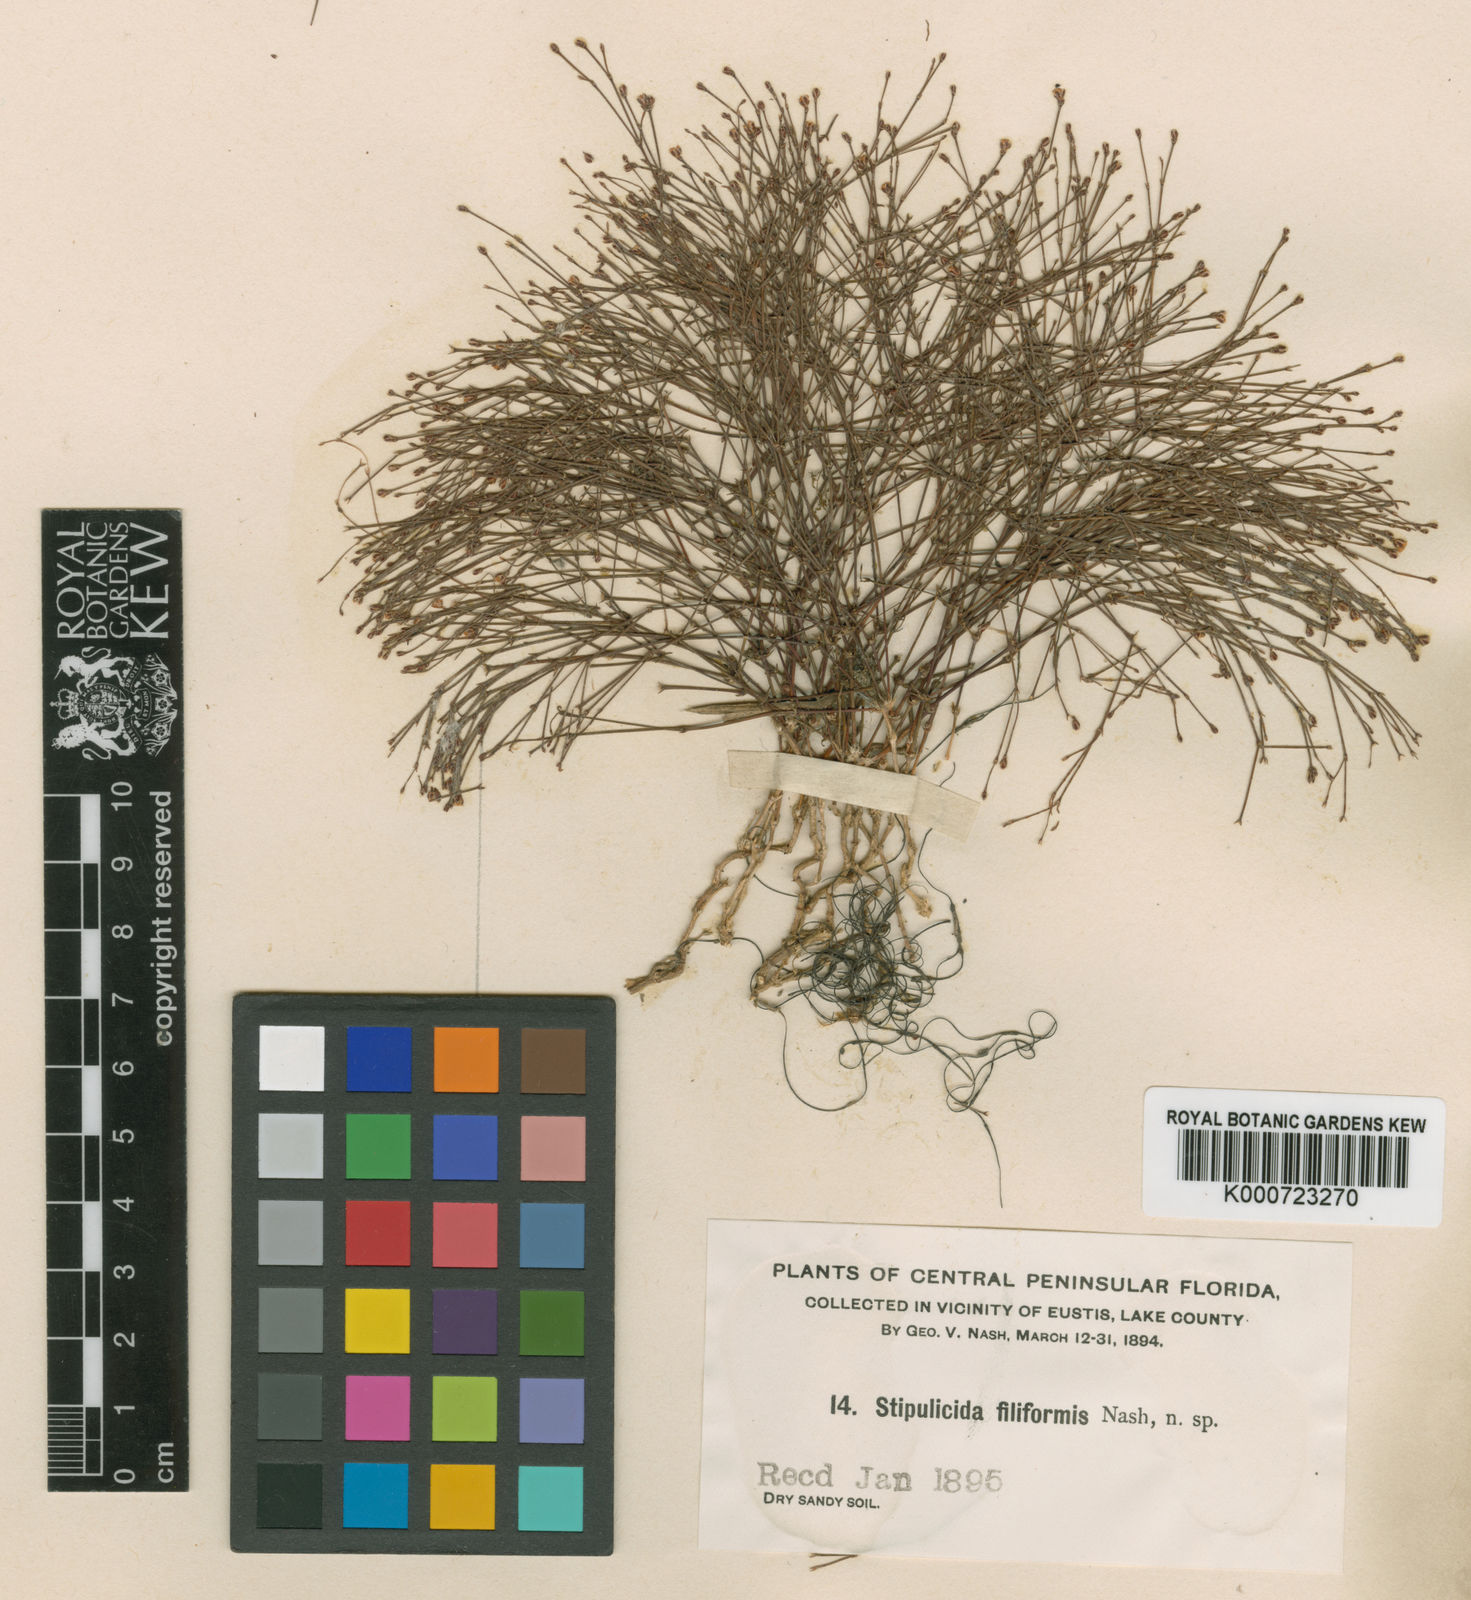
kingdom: Plantae
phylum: Tracheophyta
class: Magnoliopsida
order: Caryophyllales
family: Caryophyllaceae
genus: Stipulicida
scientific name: Stipulicida setacea
